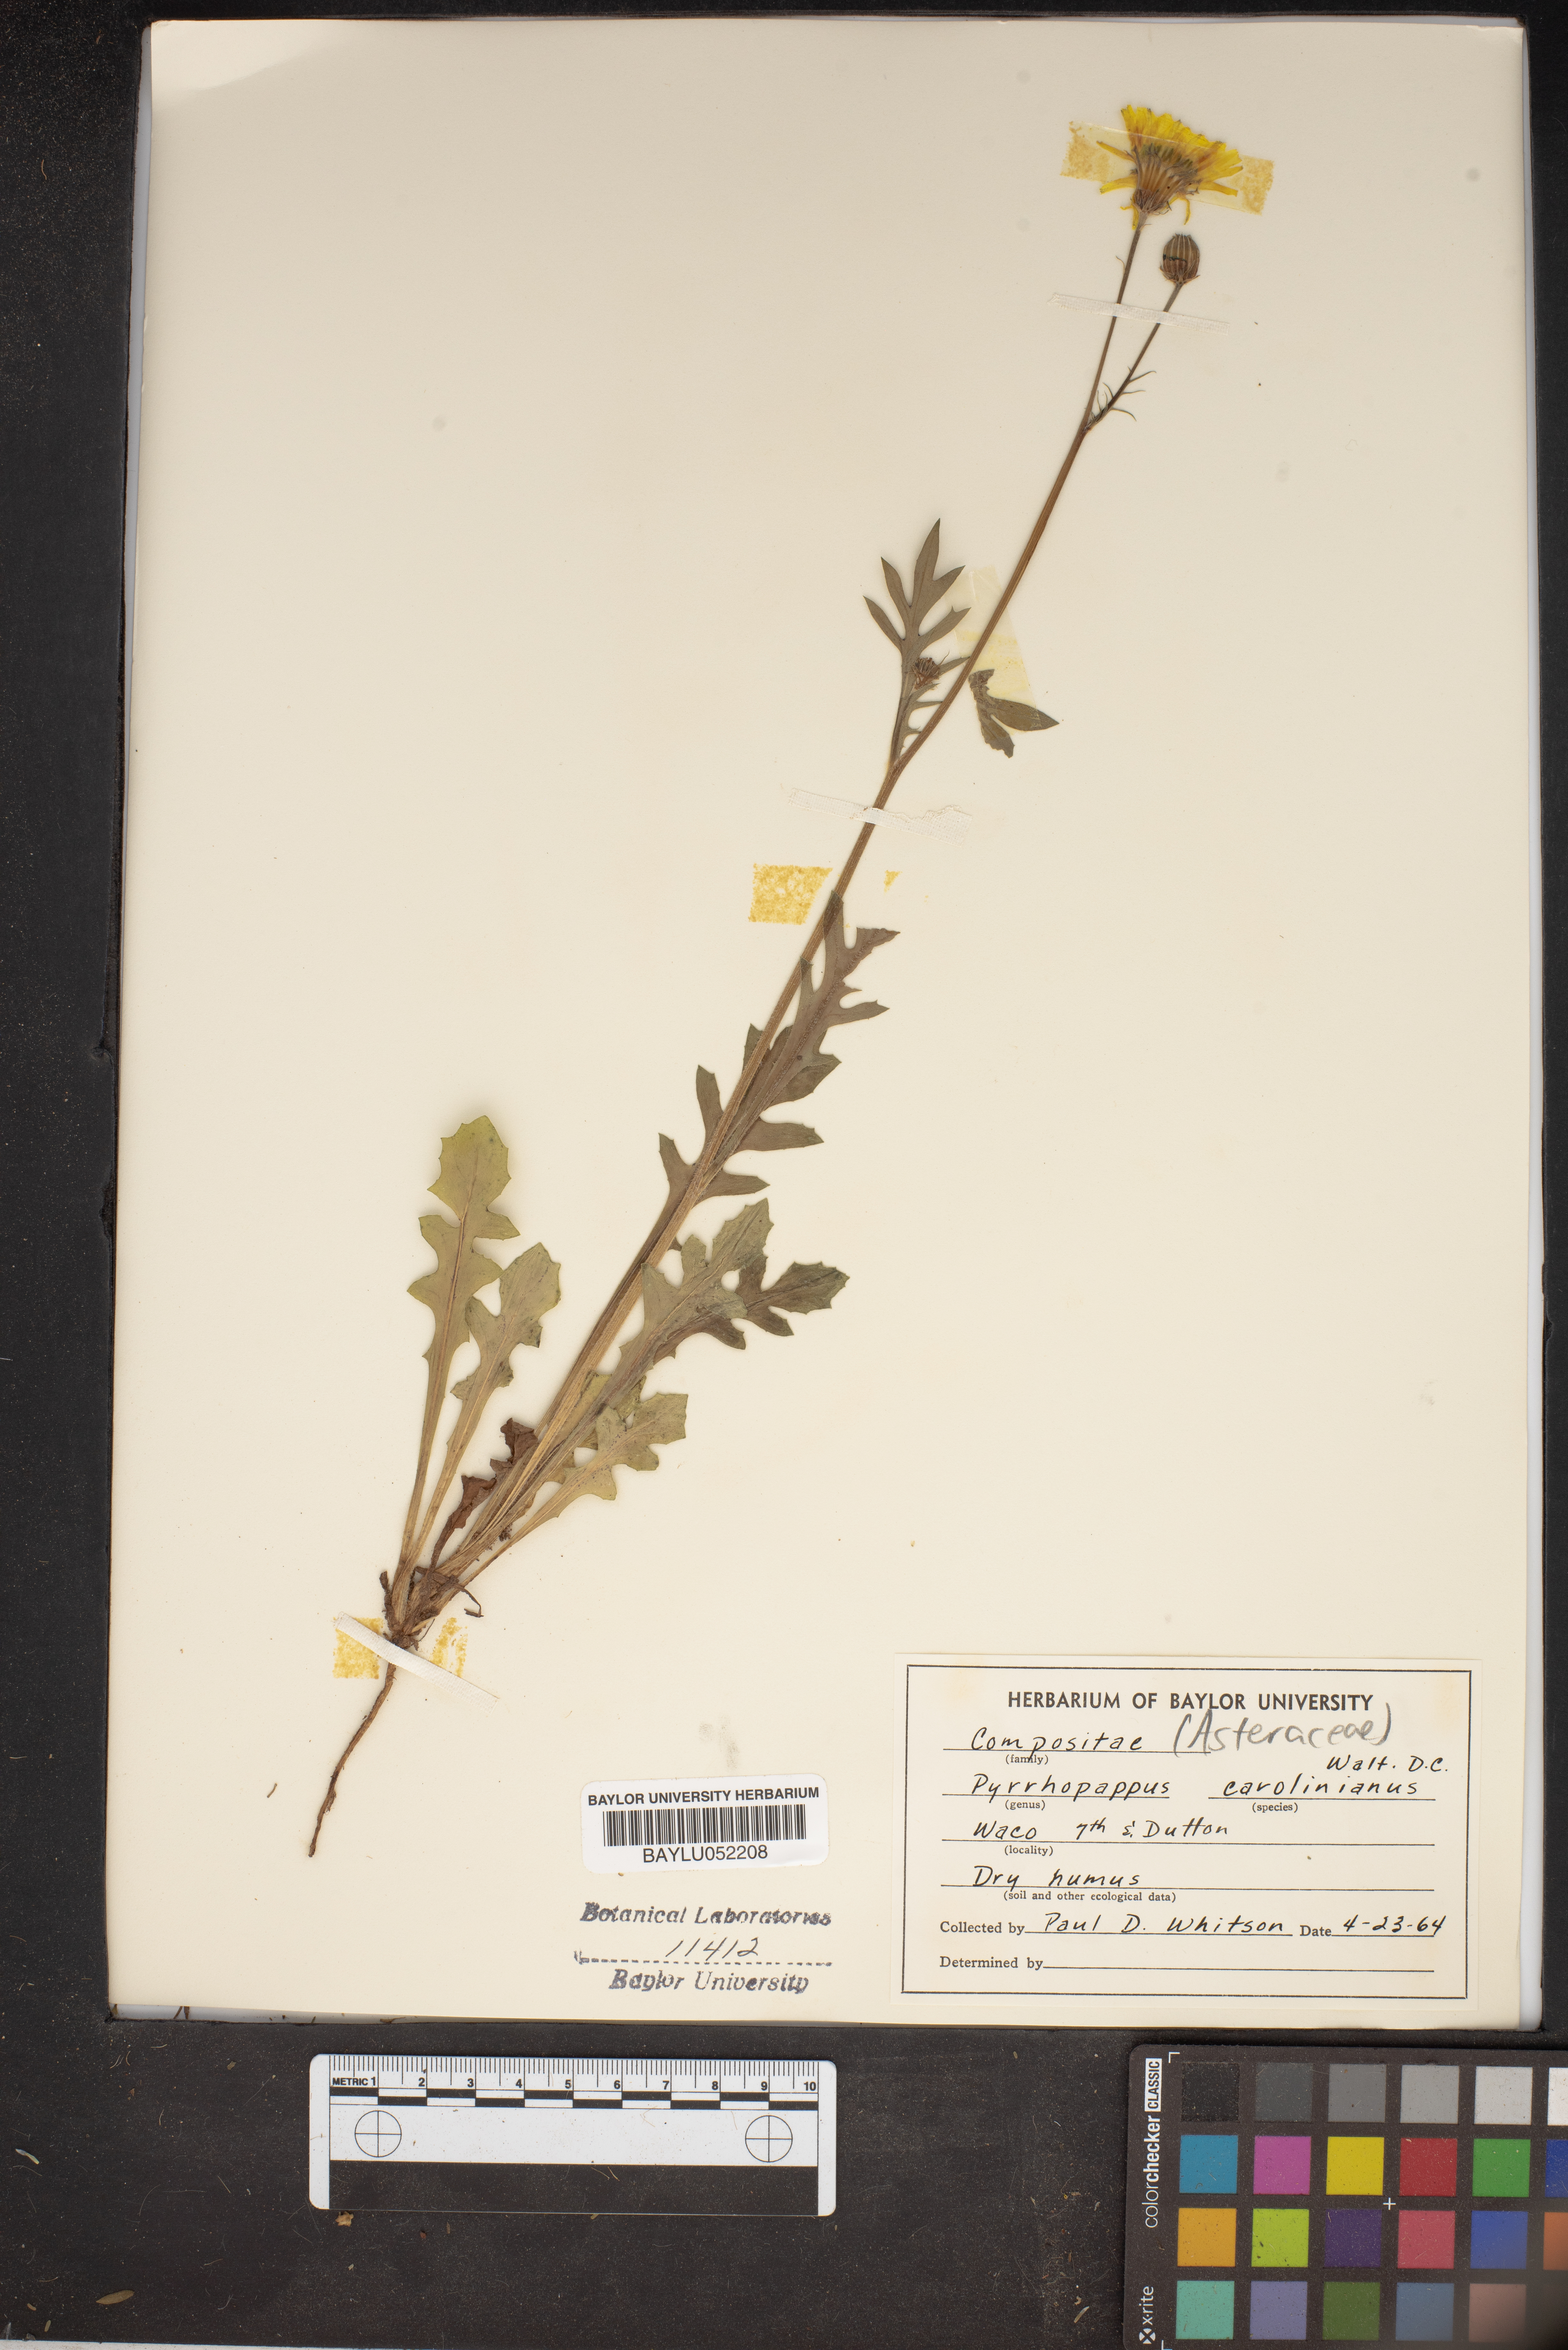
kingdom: Plantae
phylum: Tracheophyta
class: Magnoliopsida
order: Asterales
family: Asteraceae
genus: Pyrrhopappus
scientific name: Pyrrhopappus carolinianus
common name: Carolina desert-chicory
